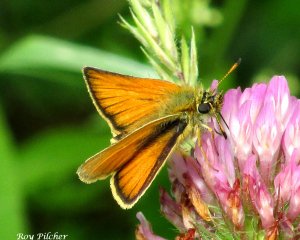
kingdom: Animalia
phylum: Arthropoda
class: Insecta
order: Lepidoptera
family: Hesperiidae
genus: Thymelicus
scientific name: Thymelicus lineola
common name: European Skipper
